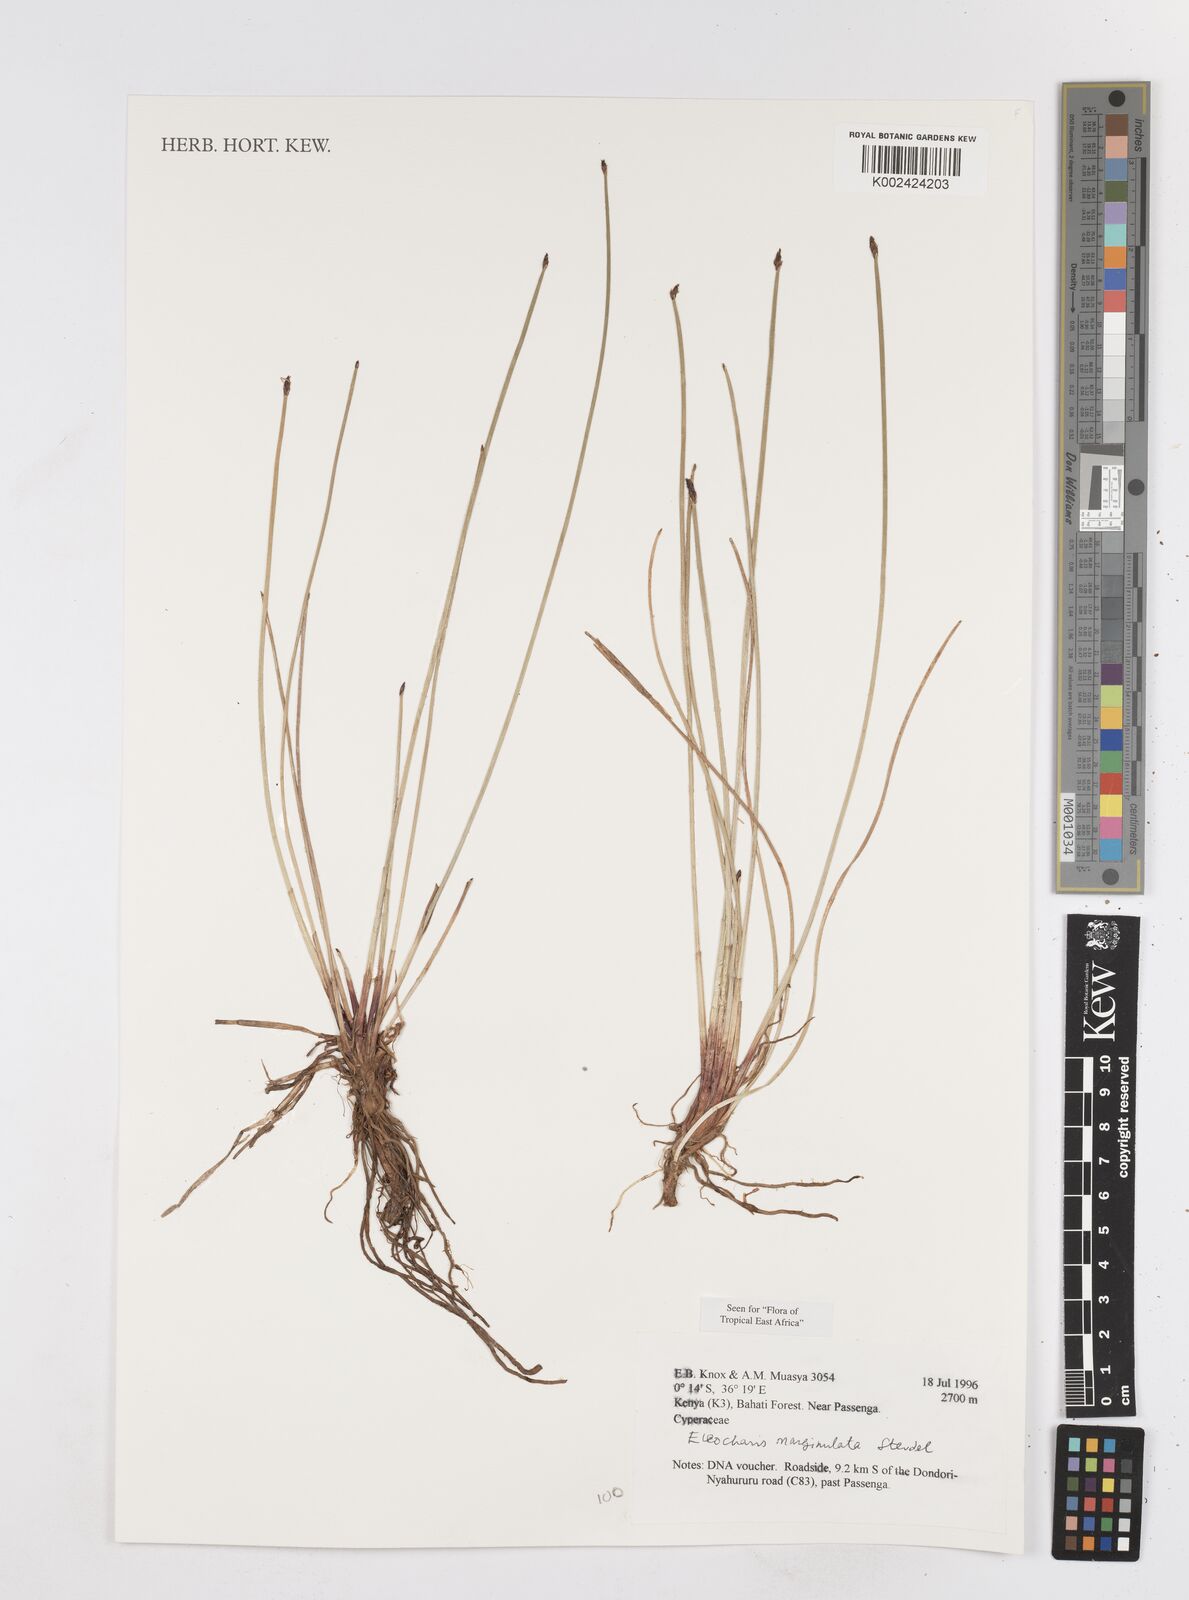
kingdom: Plantae
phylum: Tracheophyta
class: Liliopsida
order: Poales
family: Cyperaceae
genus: Eleocharis
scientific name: Eleocharis marginulata
